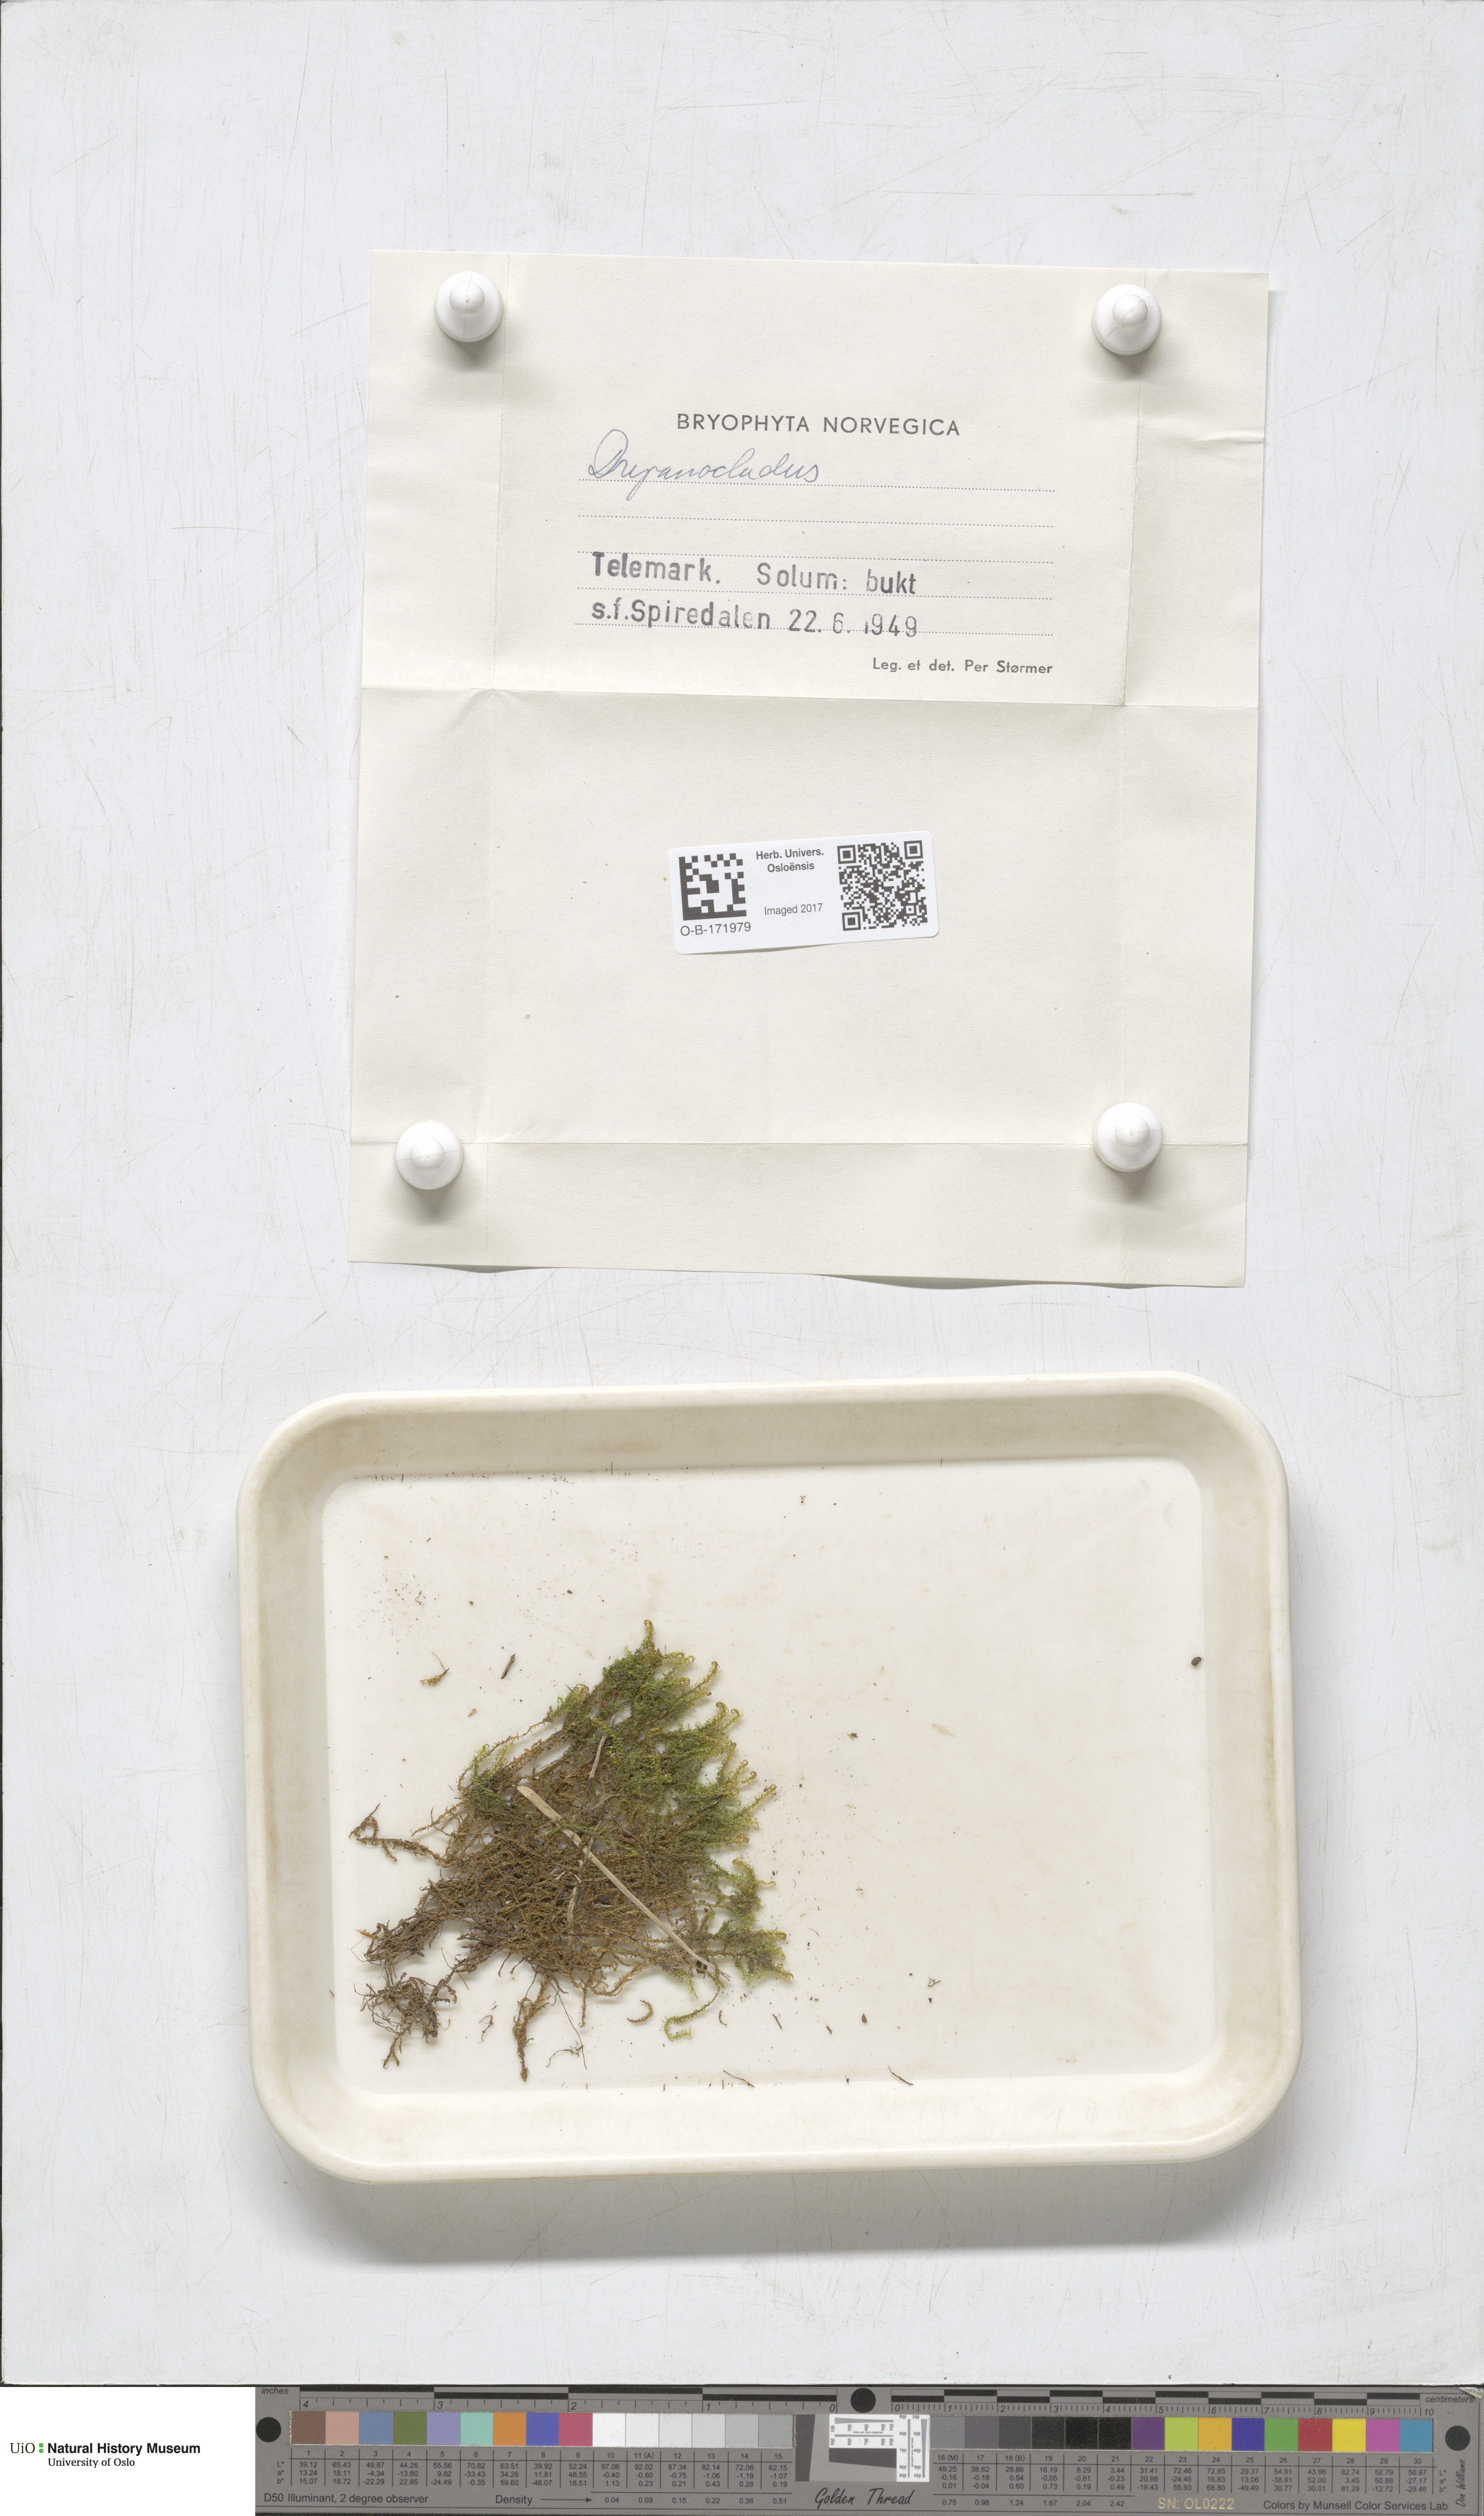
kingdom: Plantae
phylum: Bryophyta
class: Bryopsida
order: Hypnales
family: Amblystegiaceae
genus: Drepanocladus
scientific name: Drepanocladus sordidus
